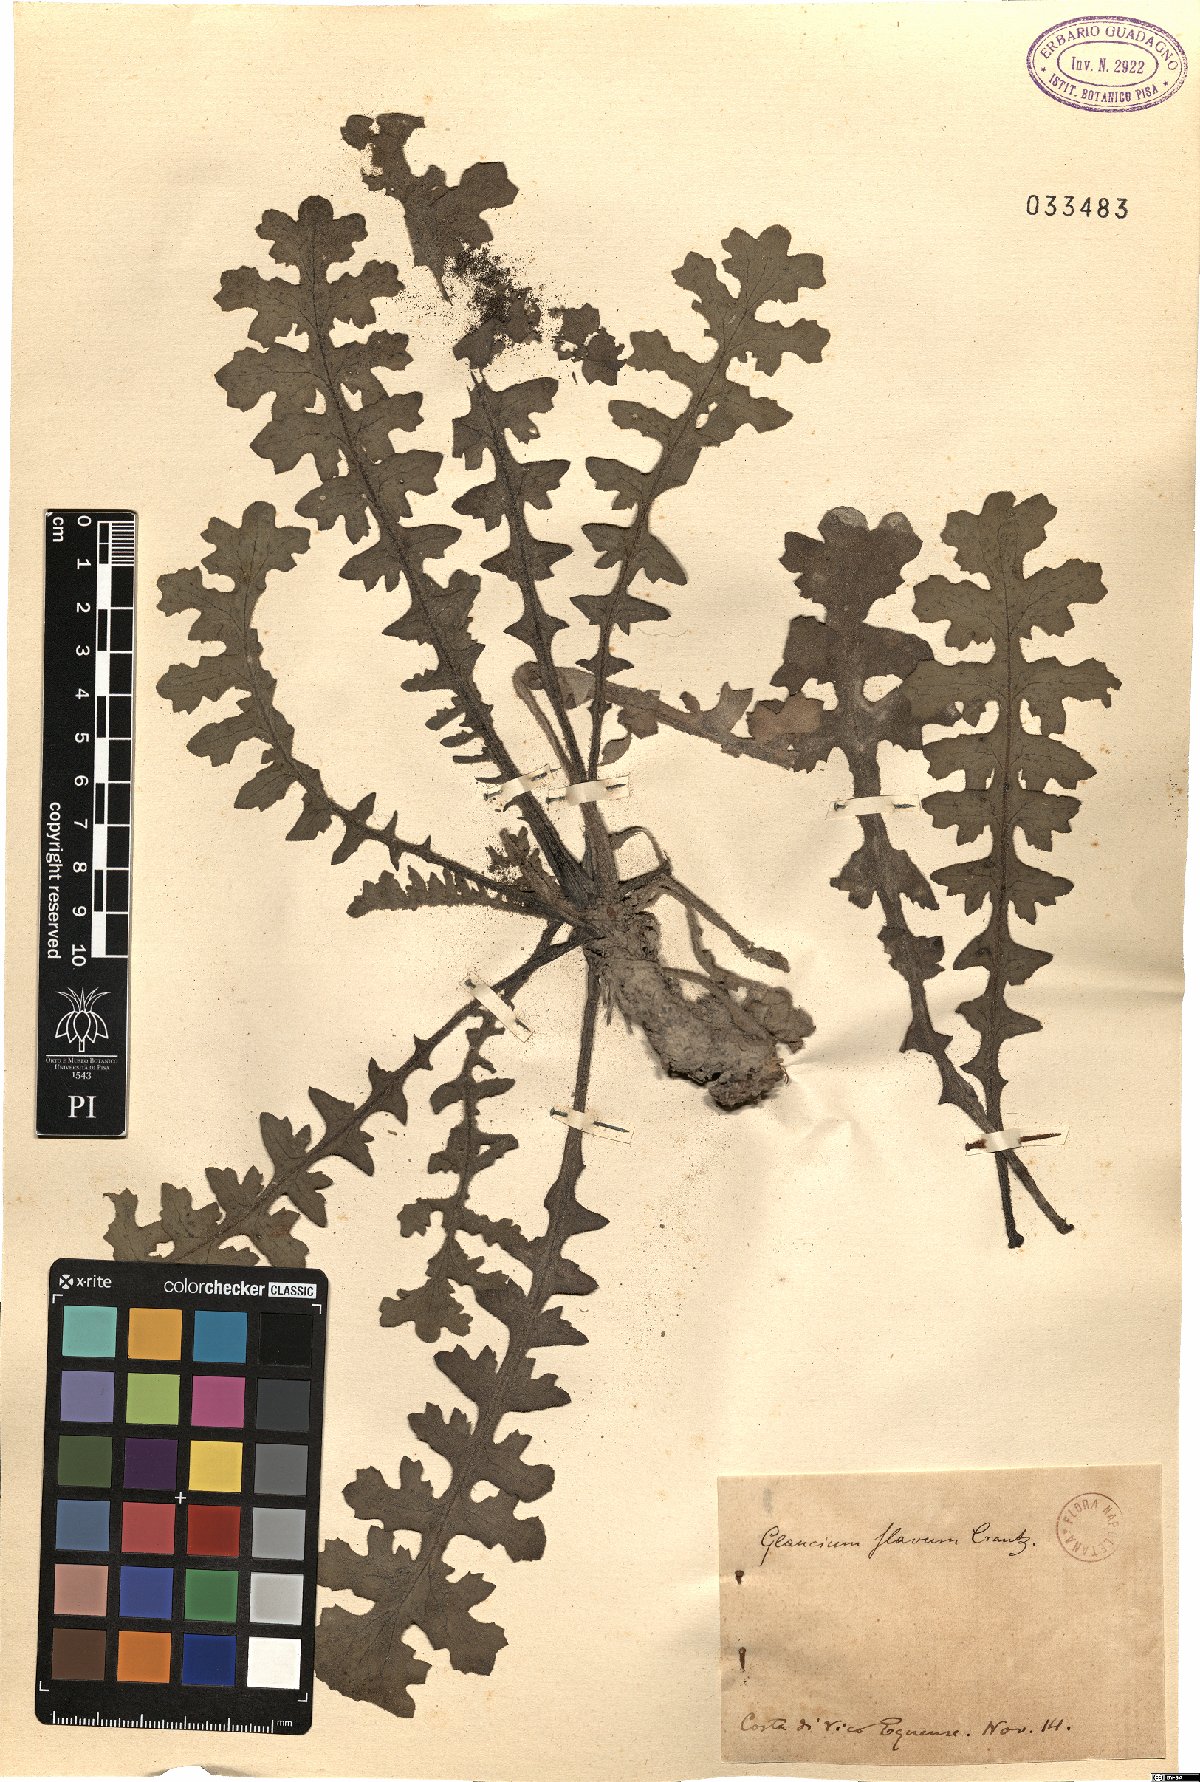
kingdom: Plantae
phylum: Tracheophyta
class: Magnoliopsida
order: Ranunculales
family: Papaveraceae
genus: Glaucium
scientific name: Glaucium flavum
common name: Yellow horned-poppy
